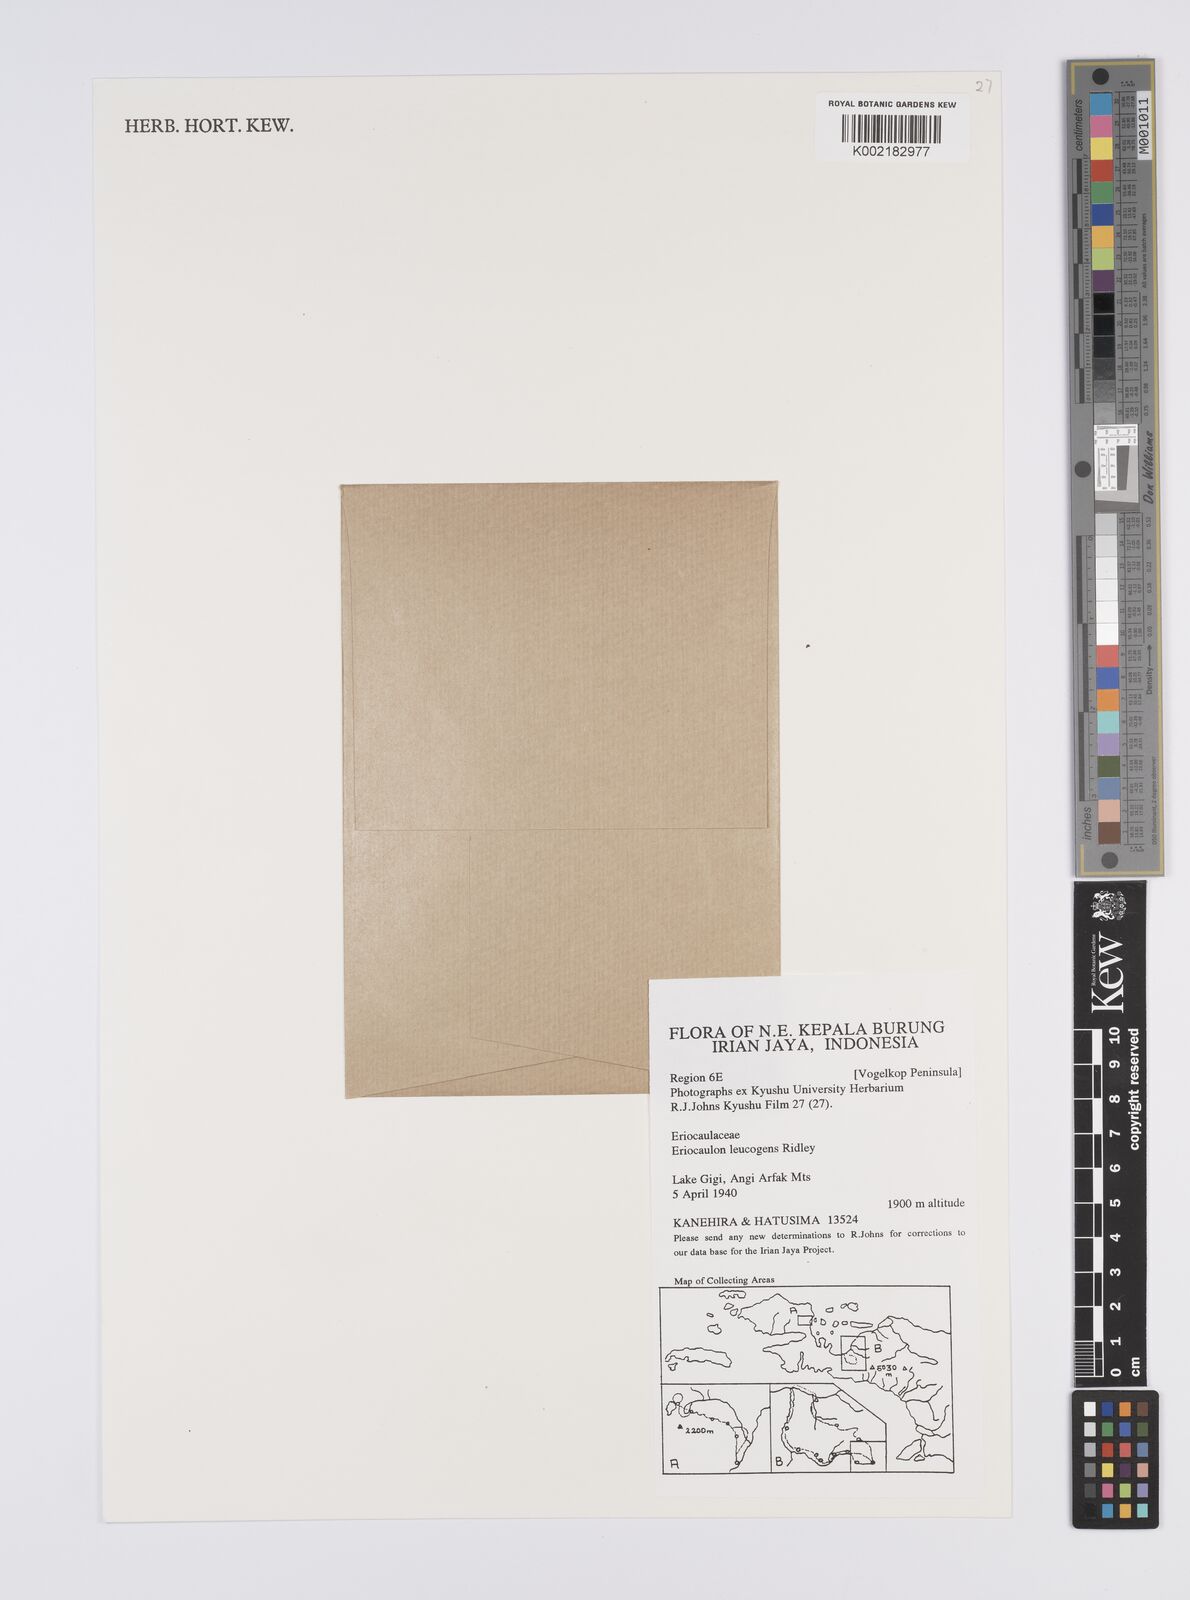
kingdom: Plantae
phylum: Tracheophyta
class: Liliopsida
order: Poales
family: Eriocaulaceae
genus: Eriocaulon
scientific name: Eriocaulon leucogenes
